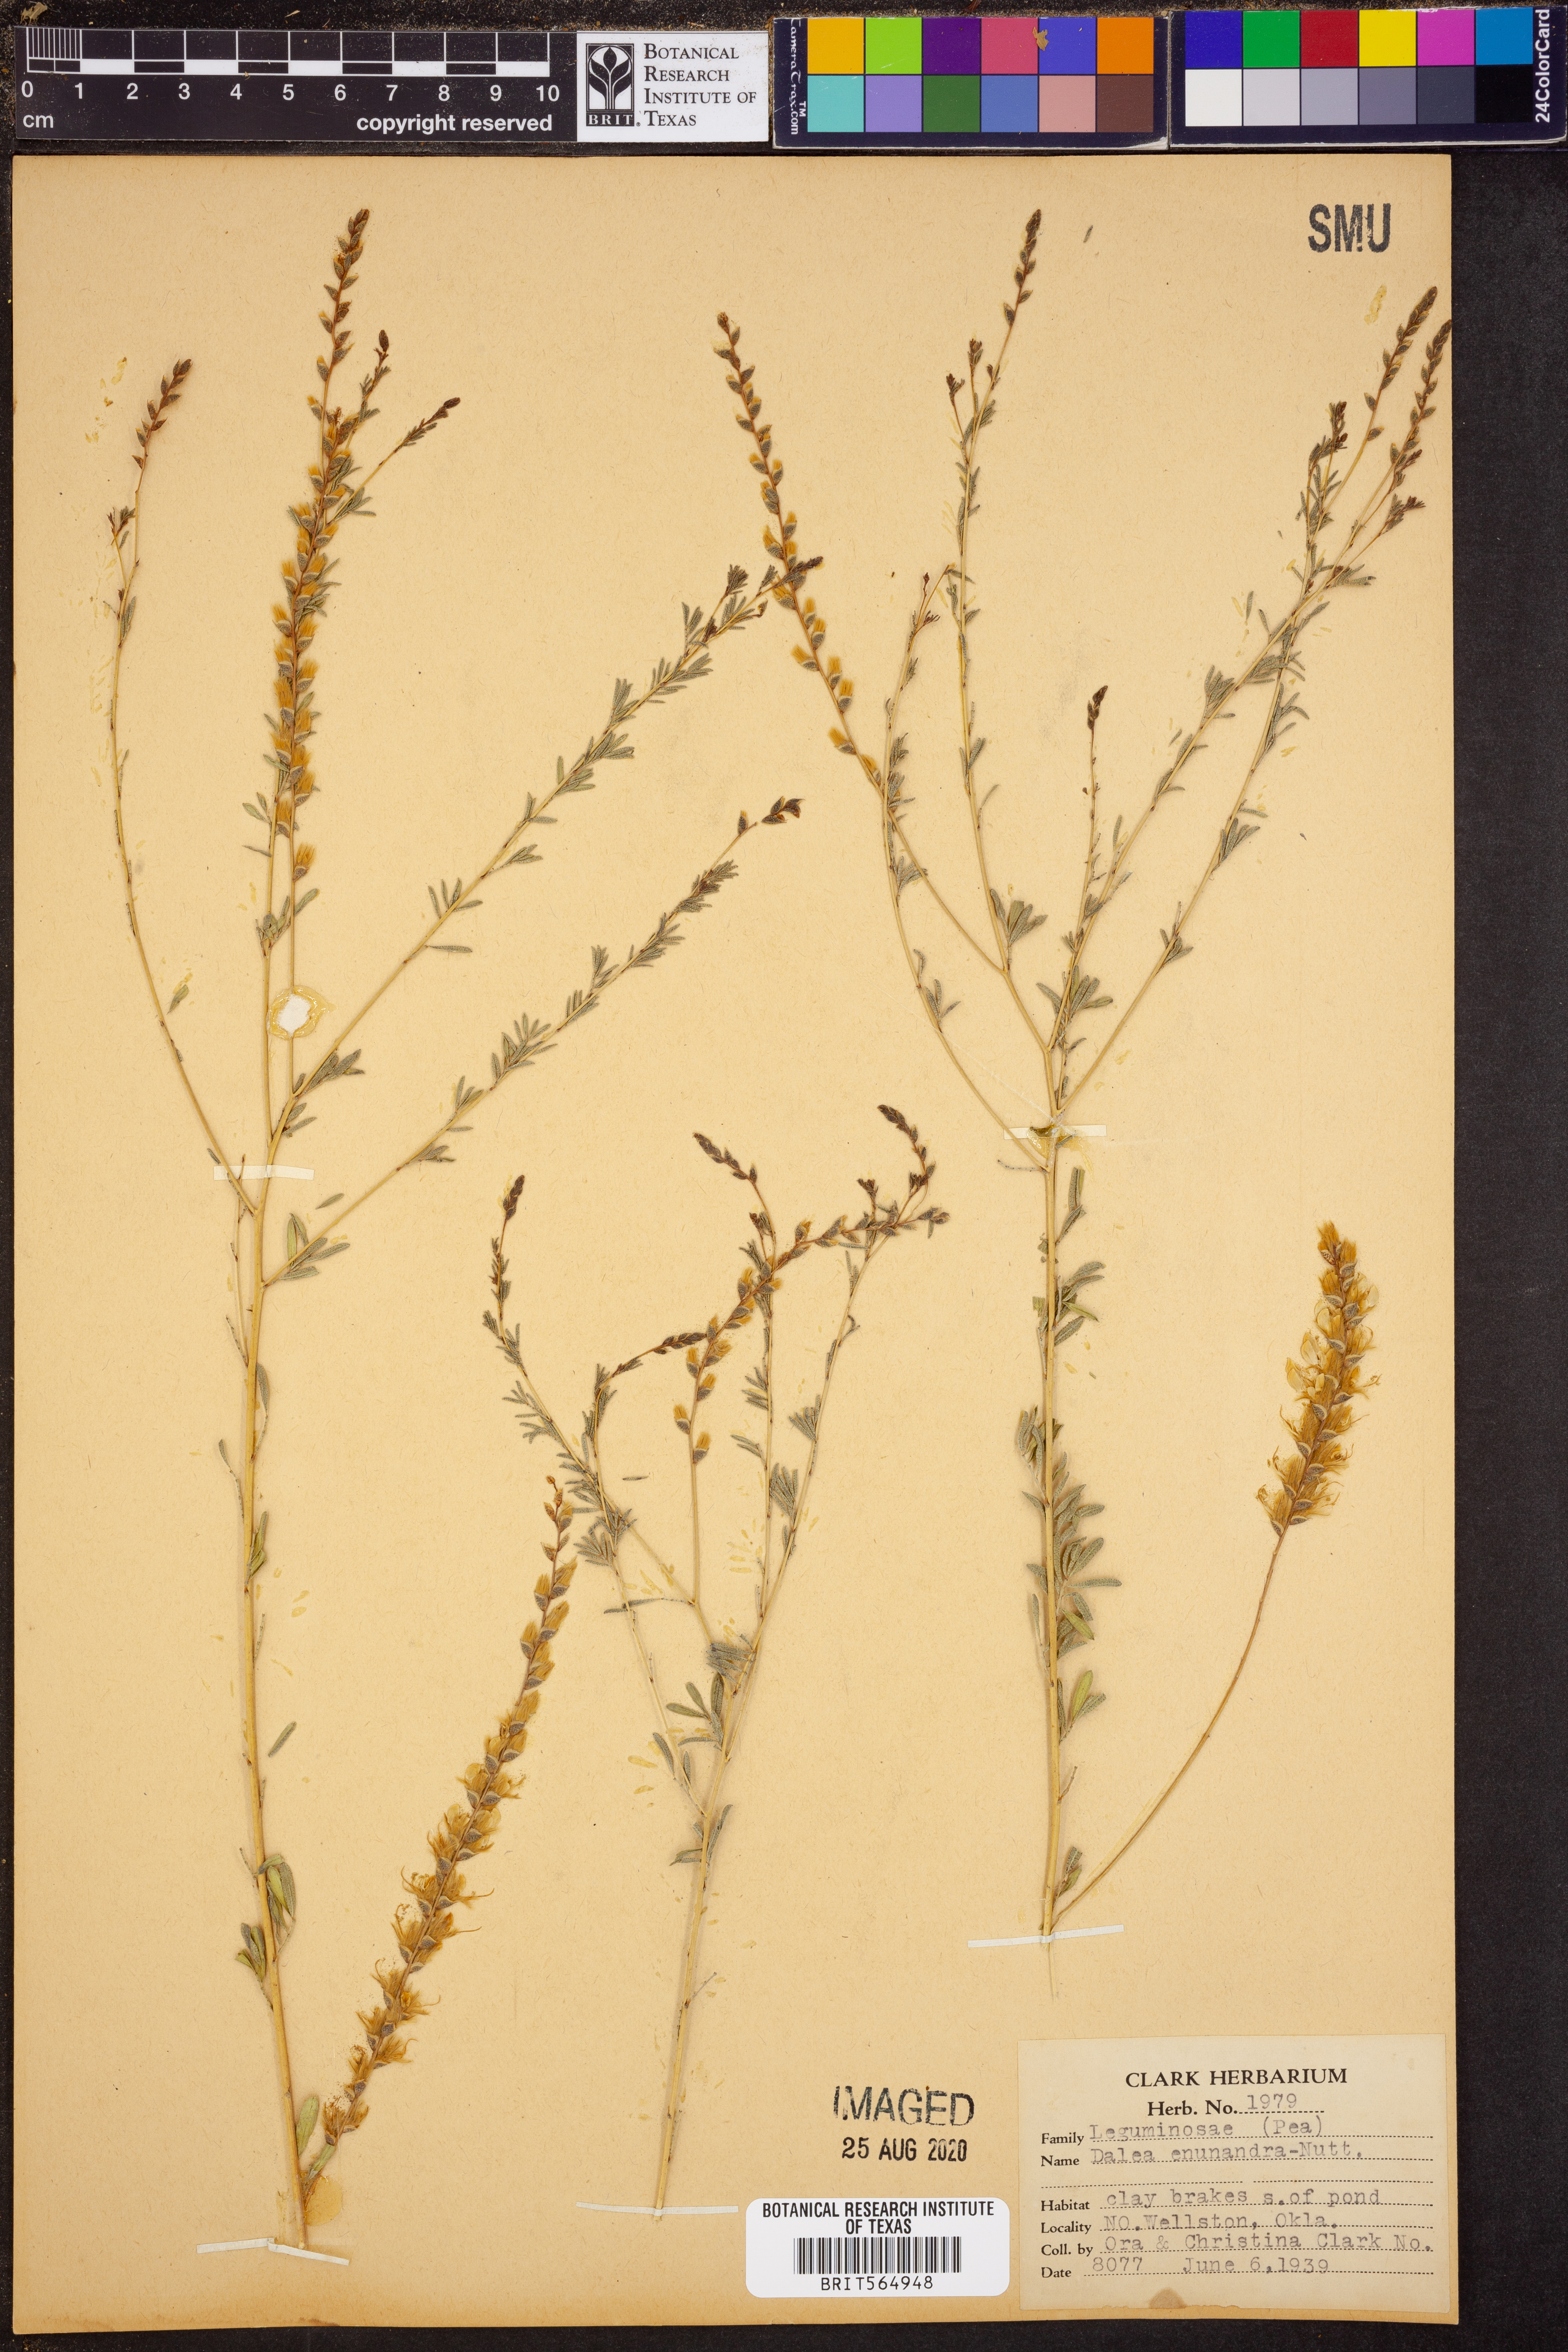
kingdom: Plantae
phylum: Tracheophyta
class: Magnoliopsida
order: Fabales
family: Fabaceae
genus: Dalea
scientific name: Dalea enneandra
